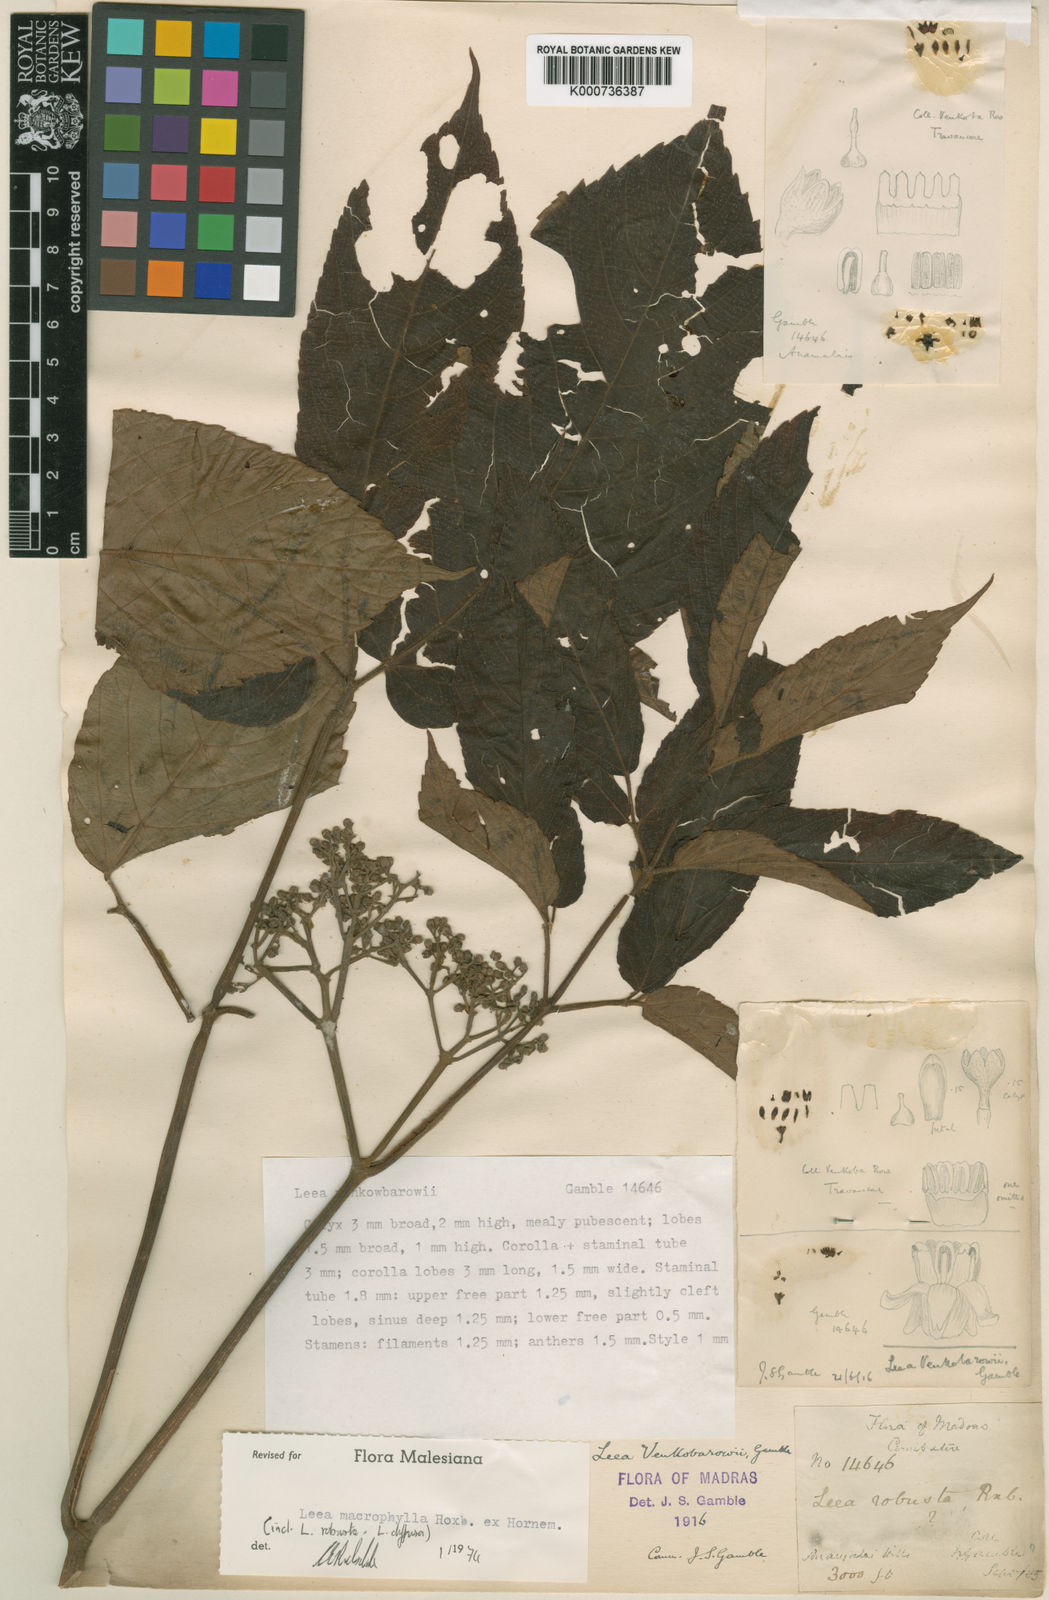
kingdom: Plantae
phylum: Tracheophyta
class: Magnoliopsida
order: Vitales
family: Vitaceae
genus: Leea
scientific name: Leea macrophylla
